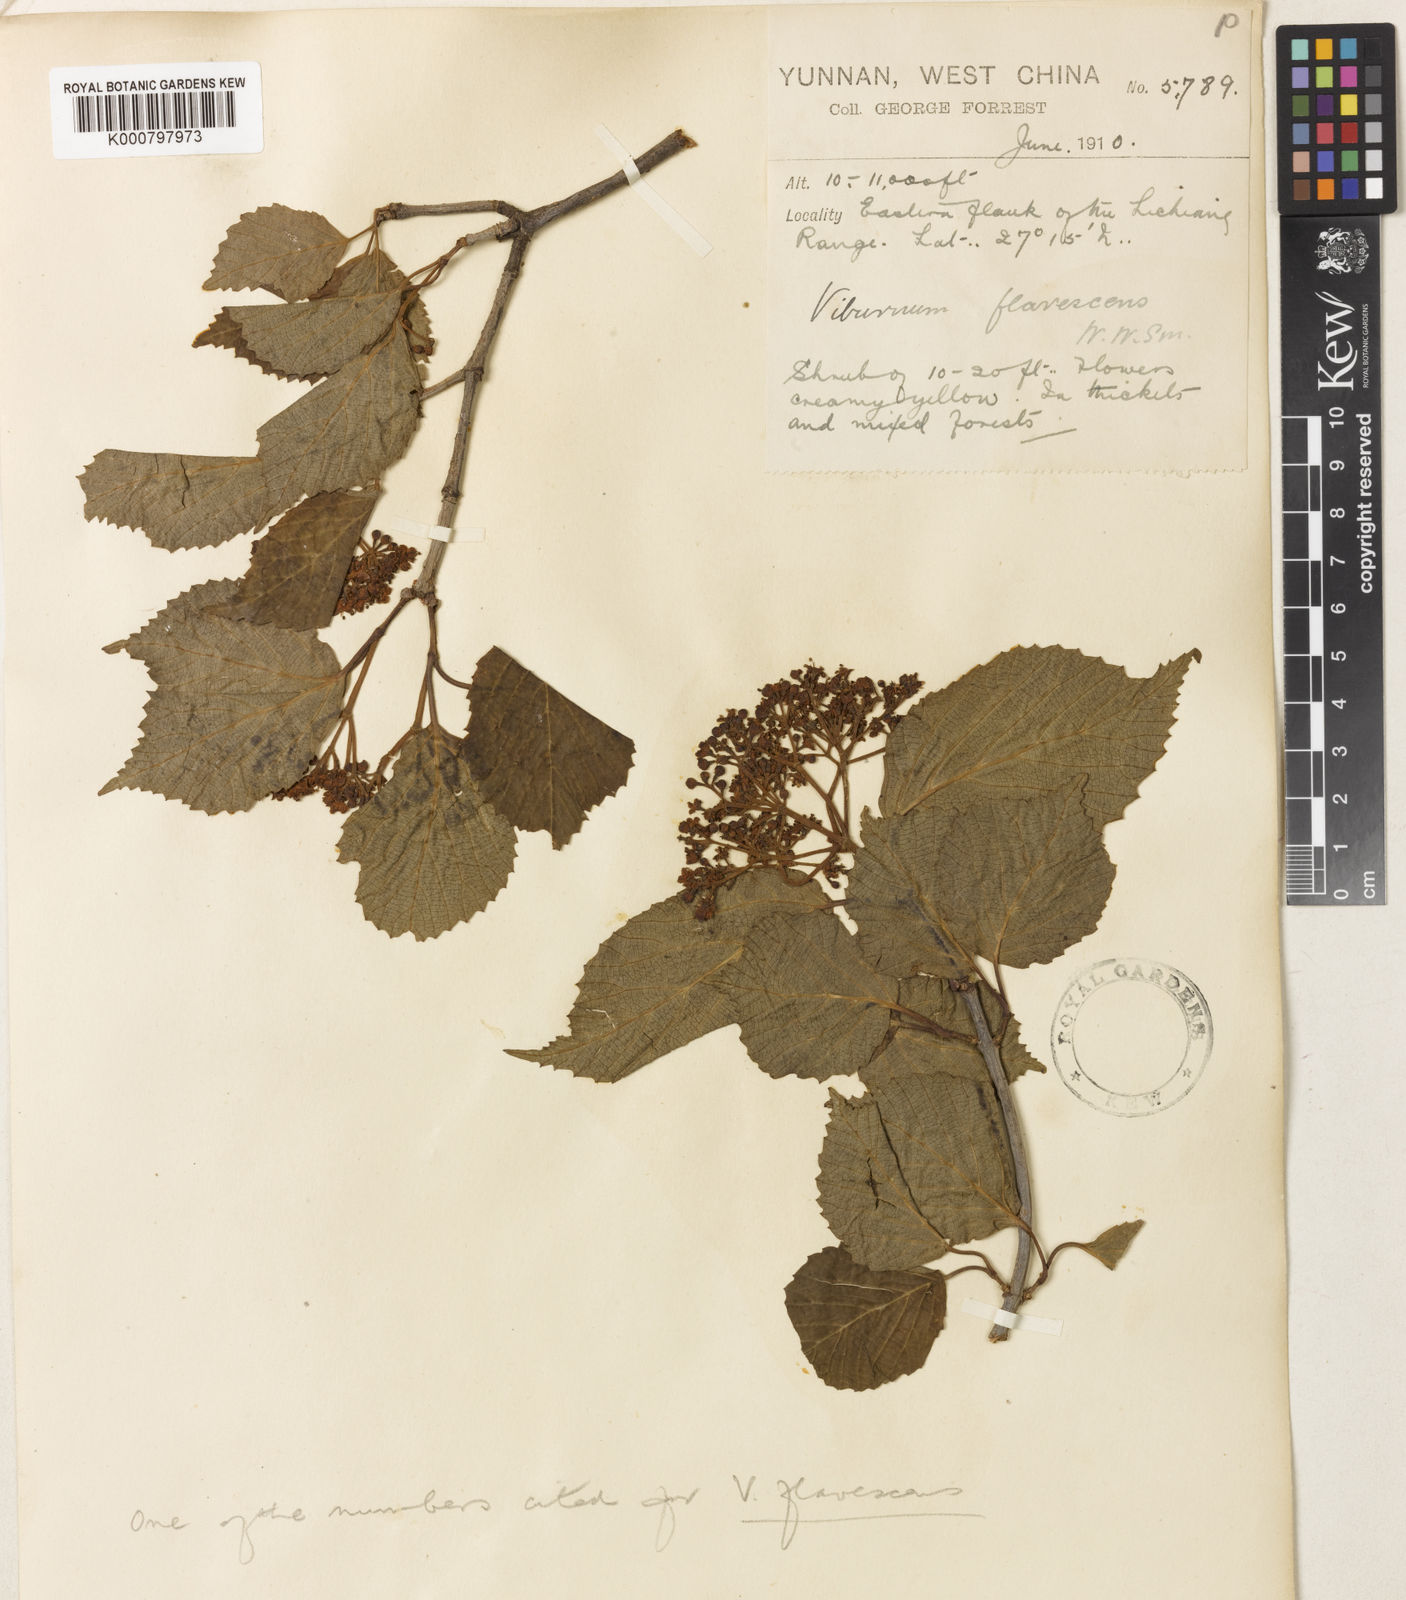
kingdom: Plantae
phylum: Tracheophyta
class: Magnoliopsida
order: Dipsacales
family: Viburnaceae
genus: Viburnum
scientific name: Viburnum betulifolium
